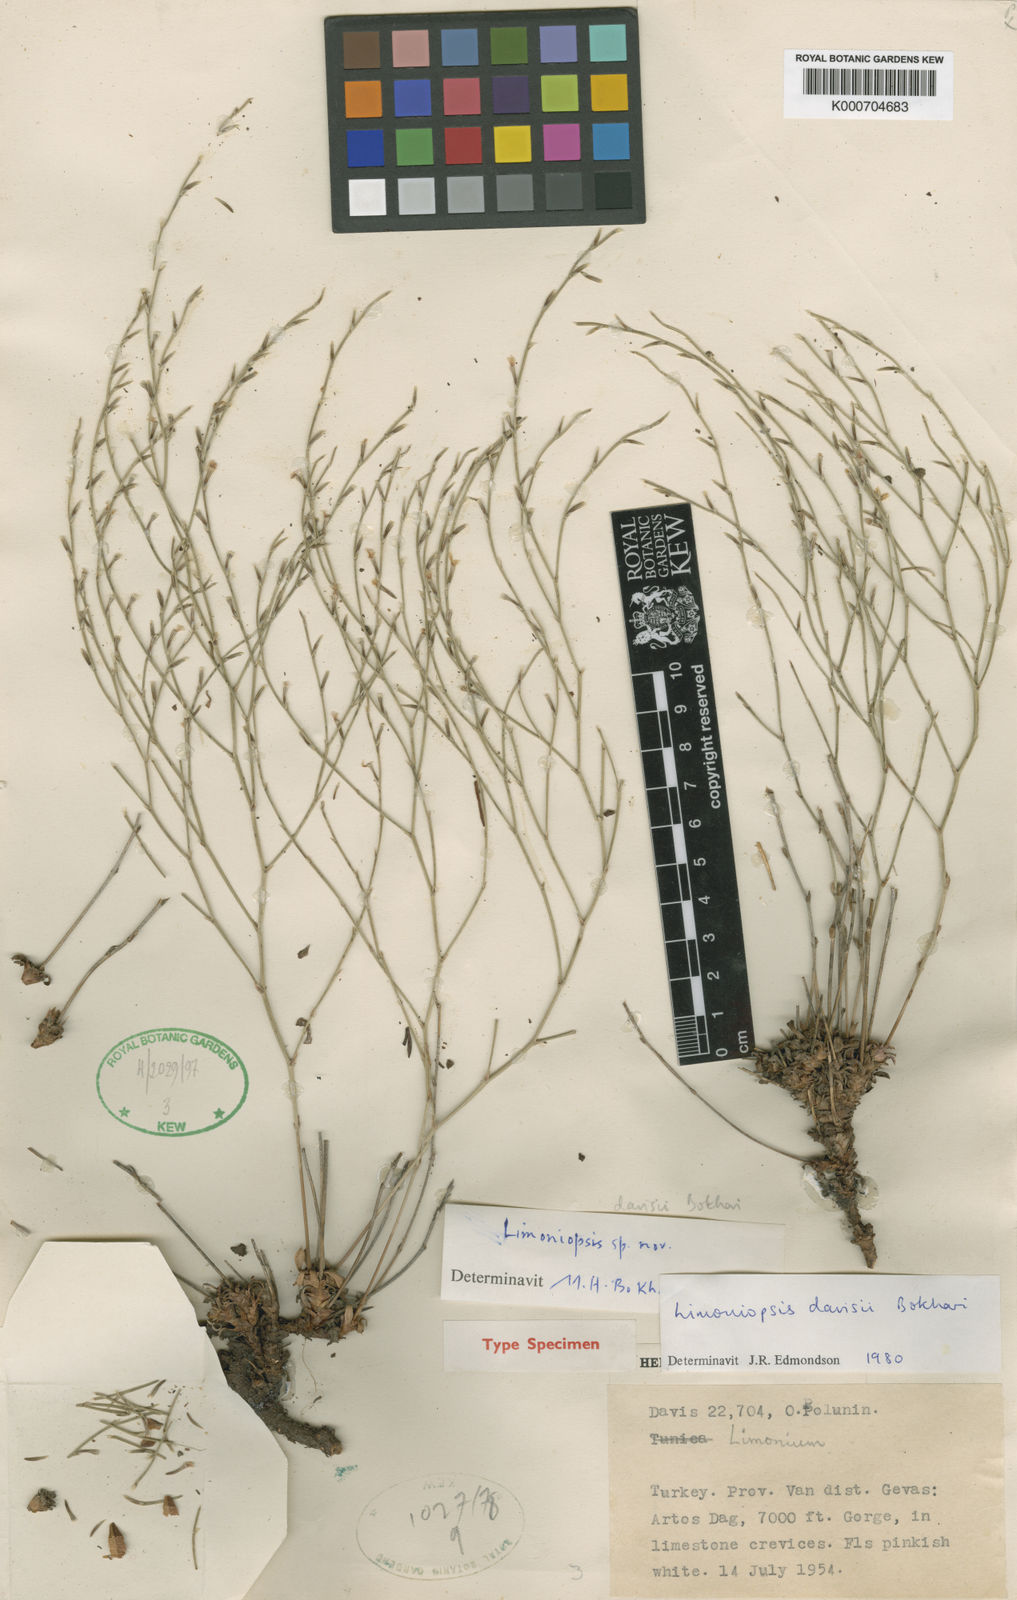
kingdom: Plantae
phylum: Tracheophyta
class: Magnoliopsida
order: Caryophyllales
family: Plumbaginaceae
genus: Limoniopsis
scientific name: Limoniopsis davisii
